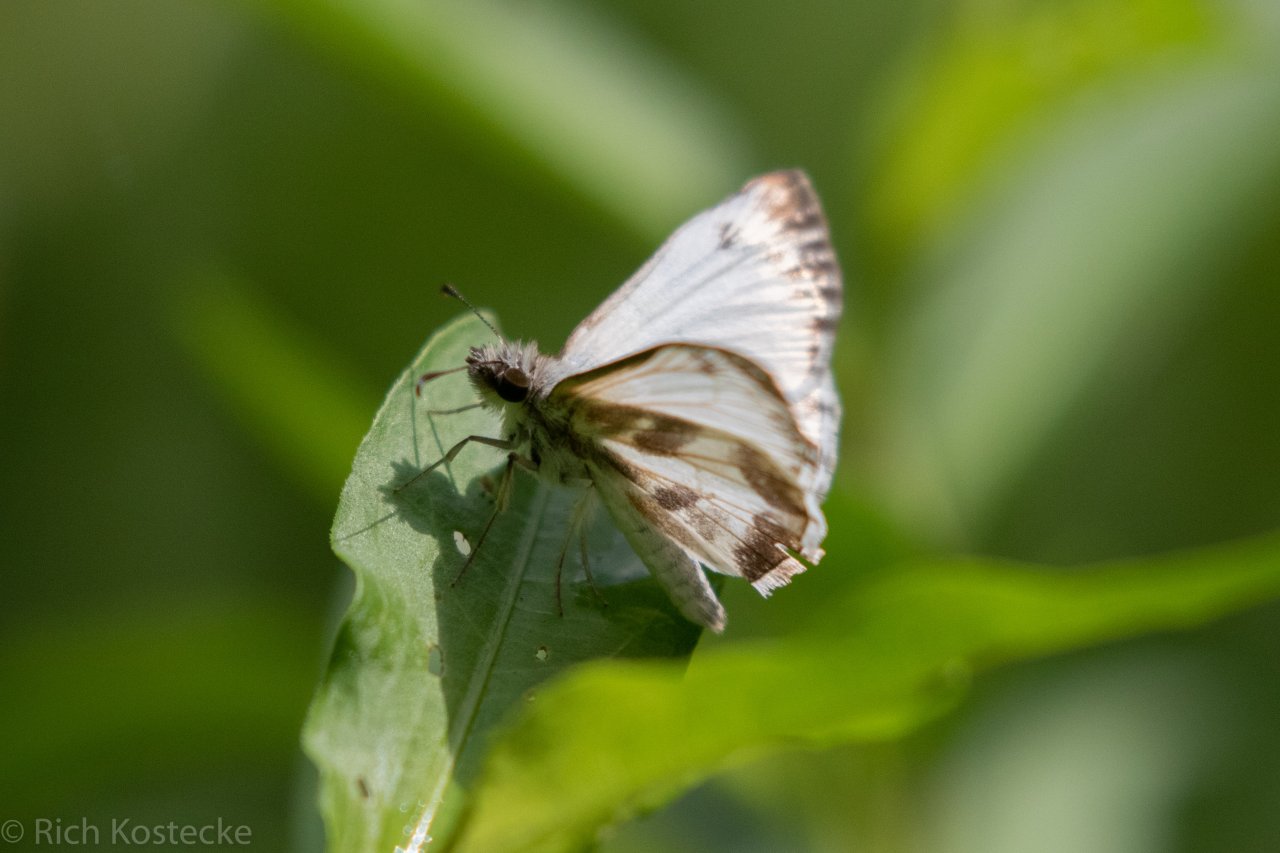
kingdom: Animalia
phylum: Arthropoda
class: Insecta
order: Lepidoptera
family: Hesperiidae
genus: Heliopetes
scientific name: Heliopetes macaira
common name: Turk's-cap White-Skipper
